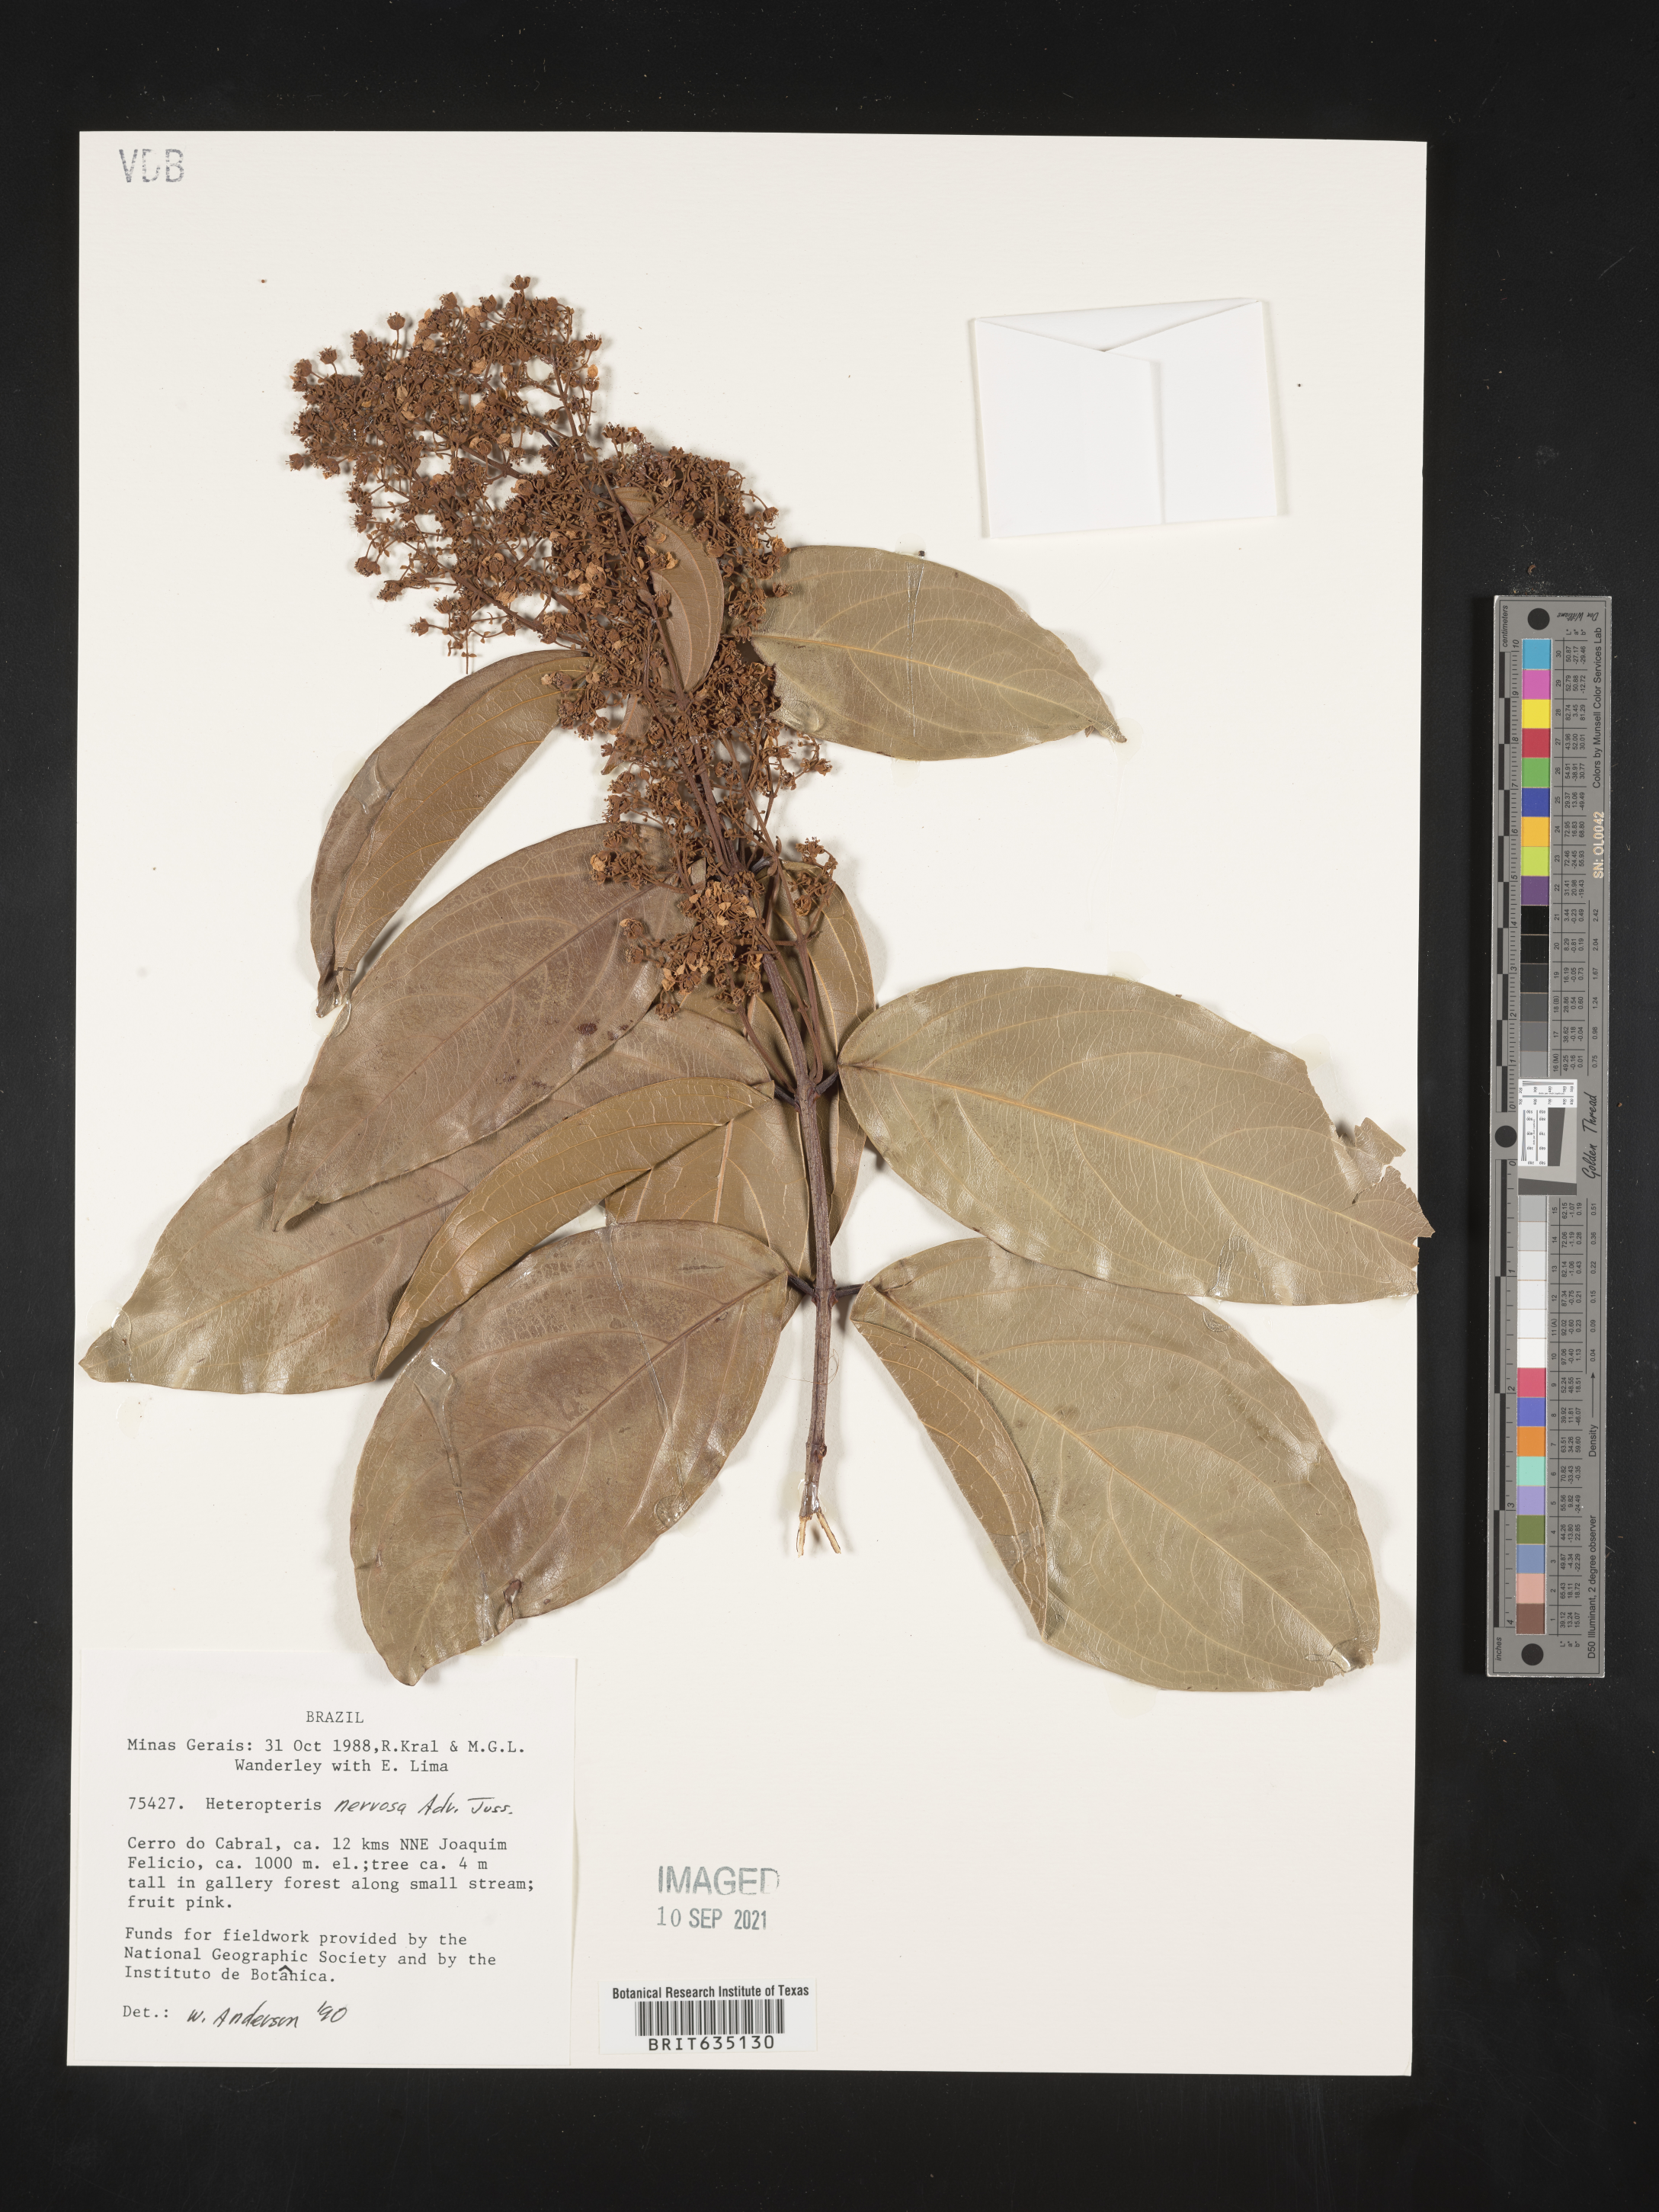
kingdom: Plantae
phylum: Tracheophyta
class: Polypodiopsida
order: Polypodiales
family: Pteridaceae
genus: Heteropteris
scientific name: Heteropteris
